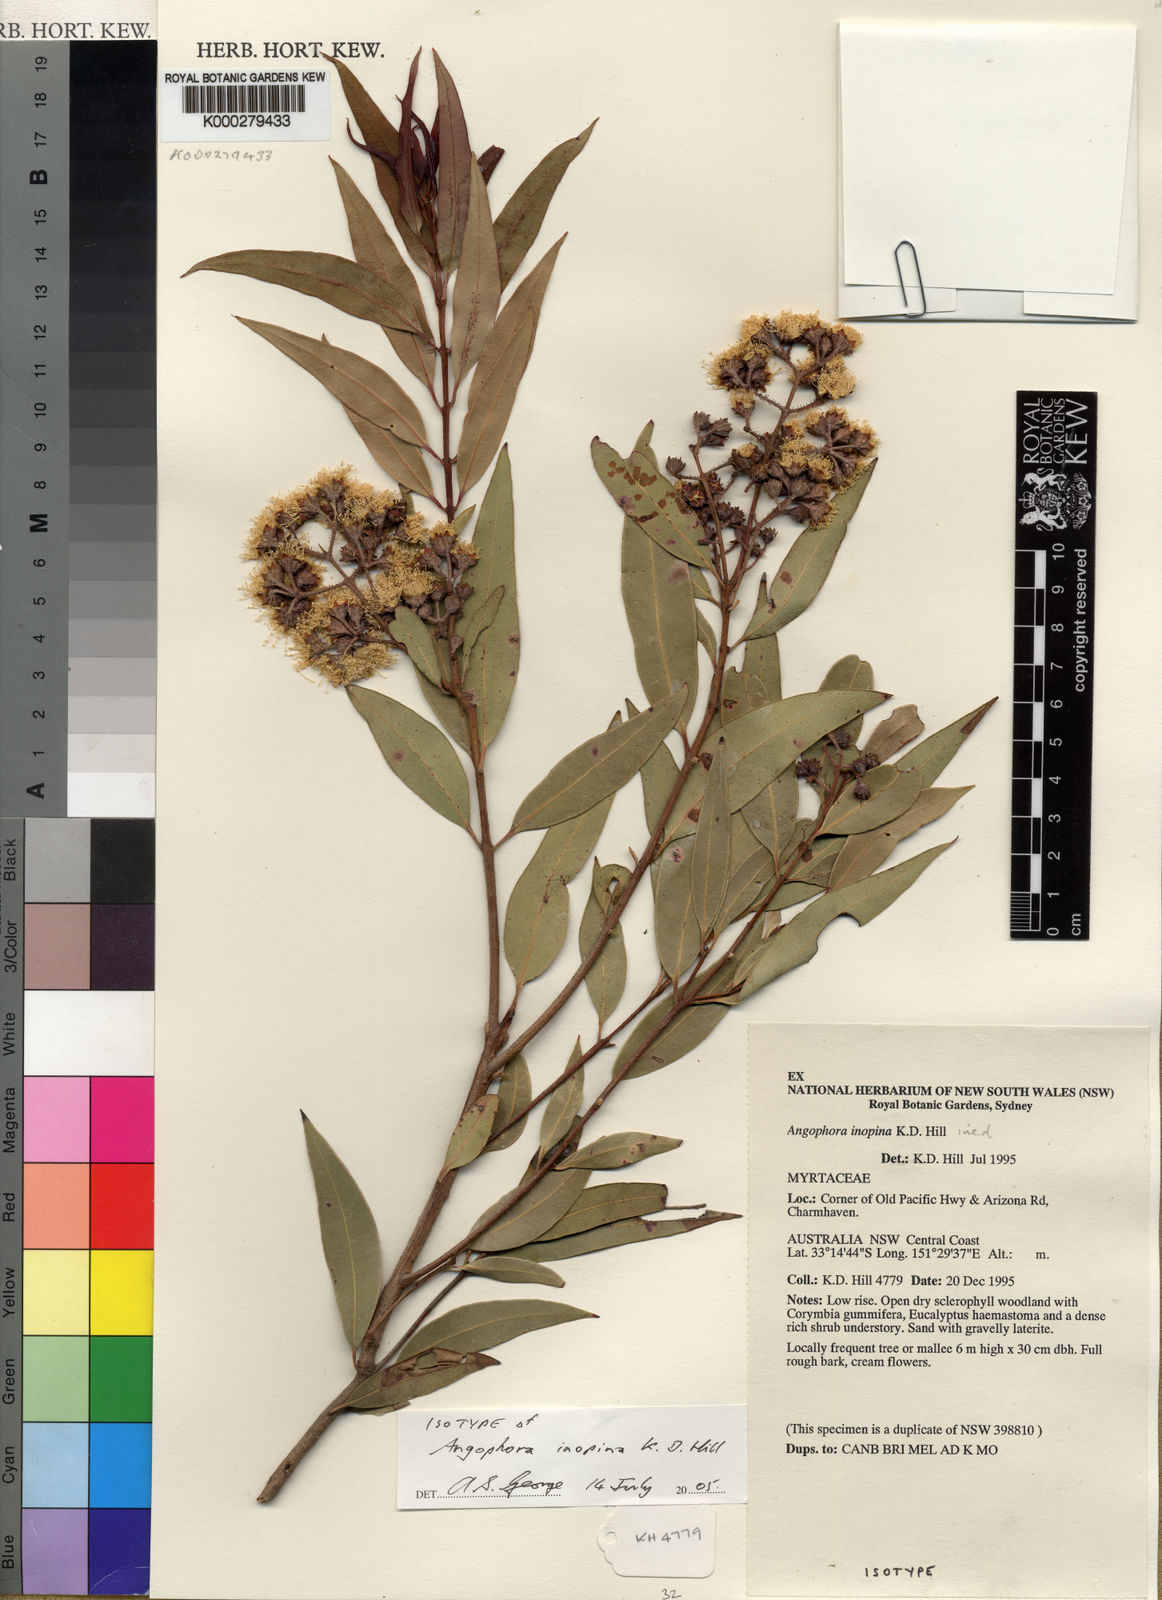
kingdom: Plantae
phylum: Tracheophyta
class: Magnoliopsida
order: Myrtales
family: Myrtaceae
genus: Angophora
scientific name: Angophora inopina
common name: Charmhaven apple
